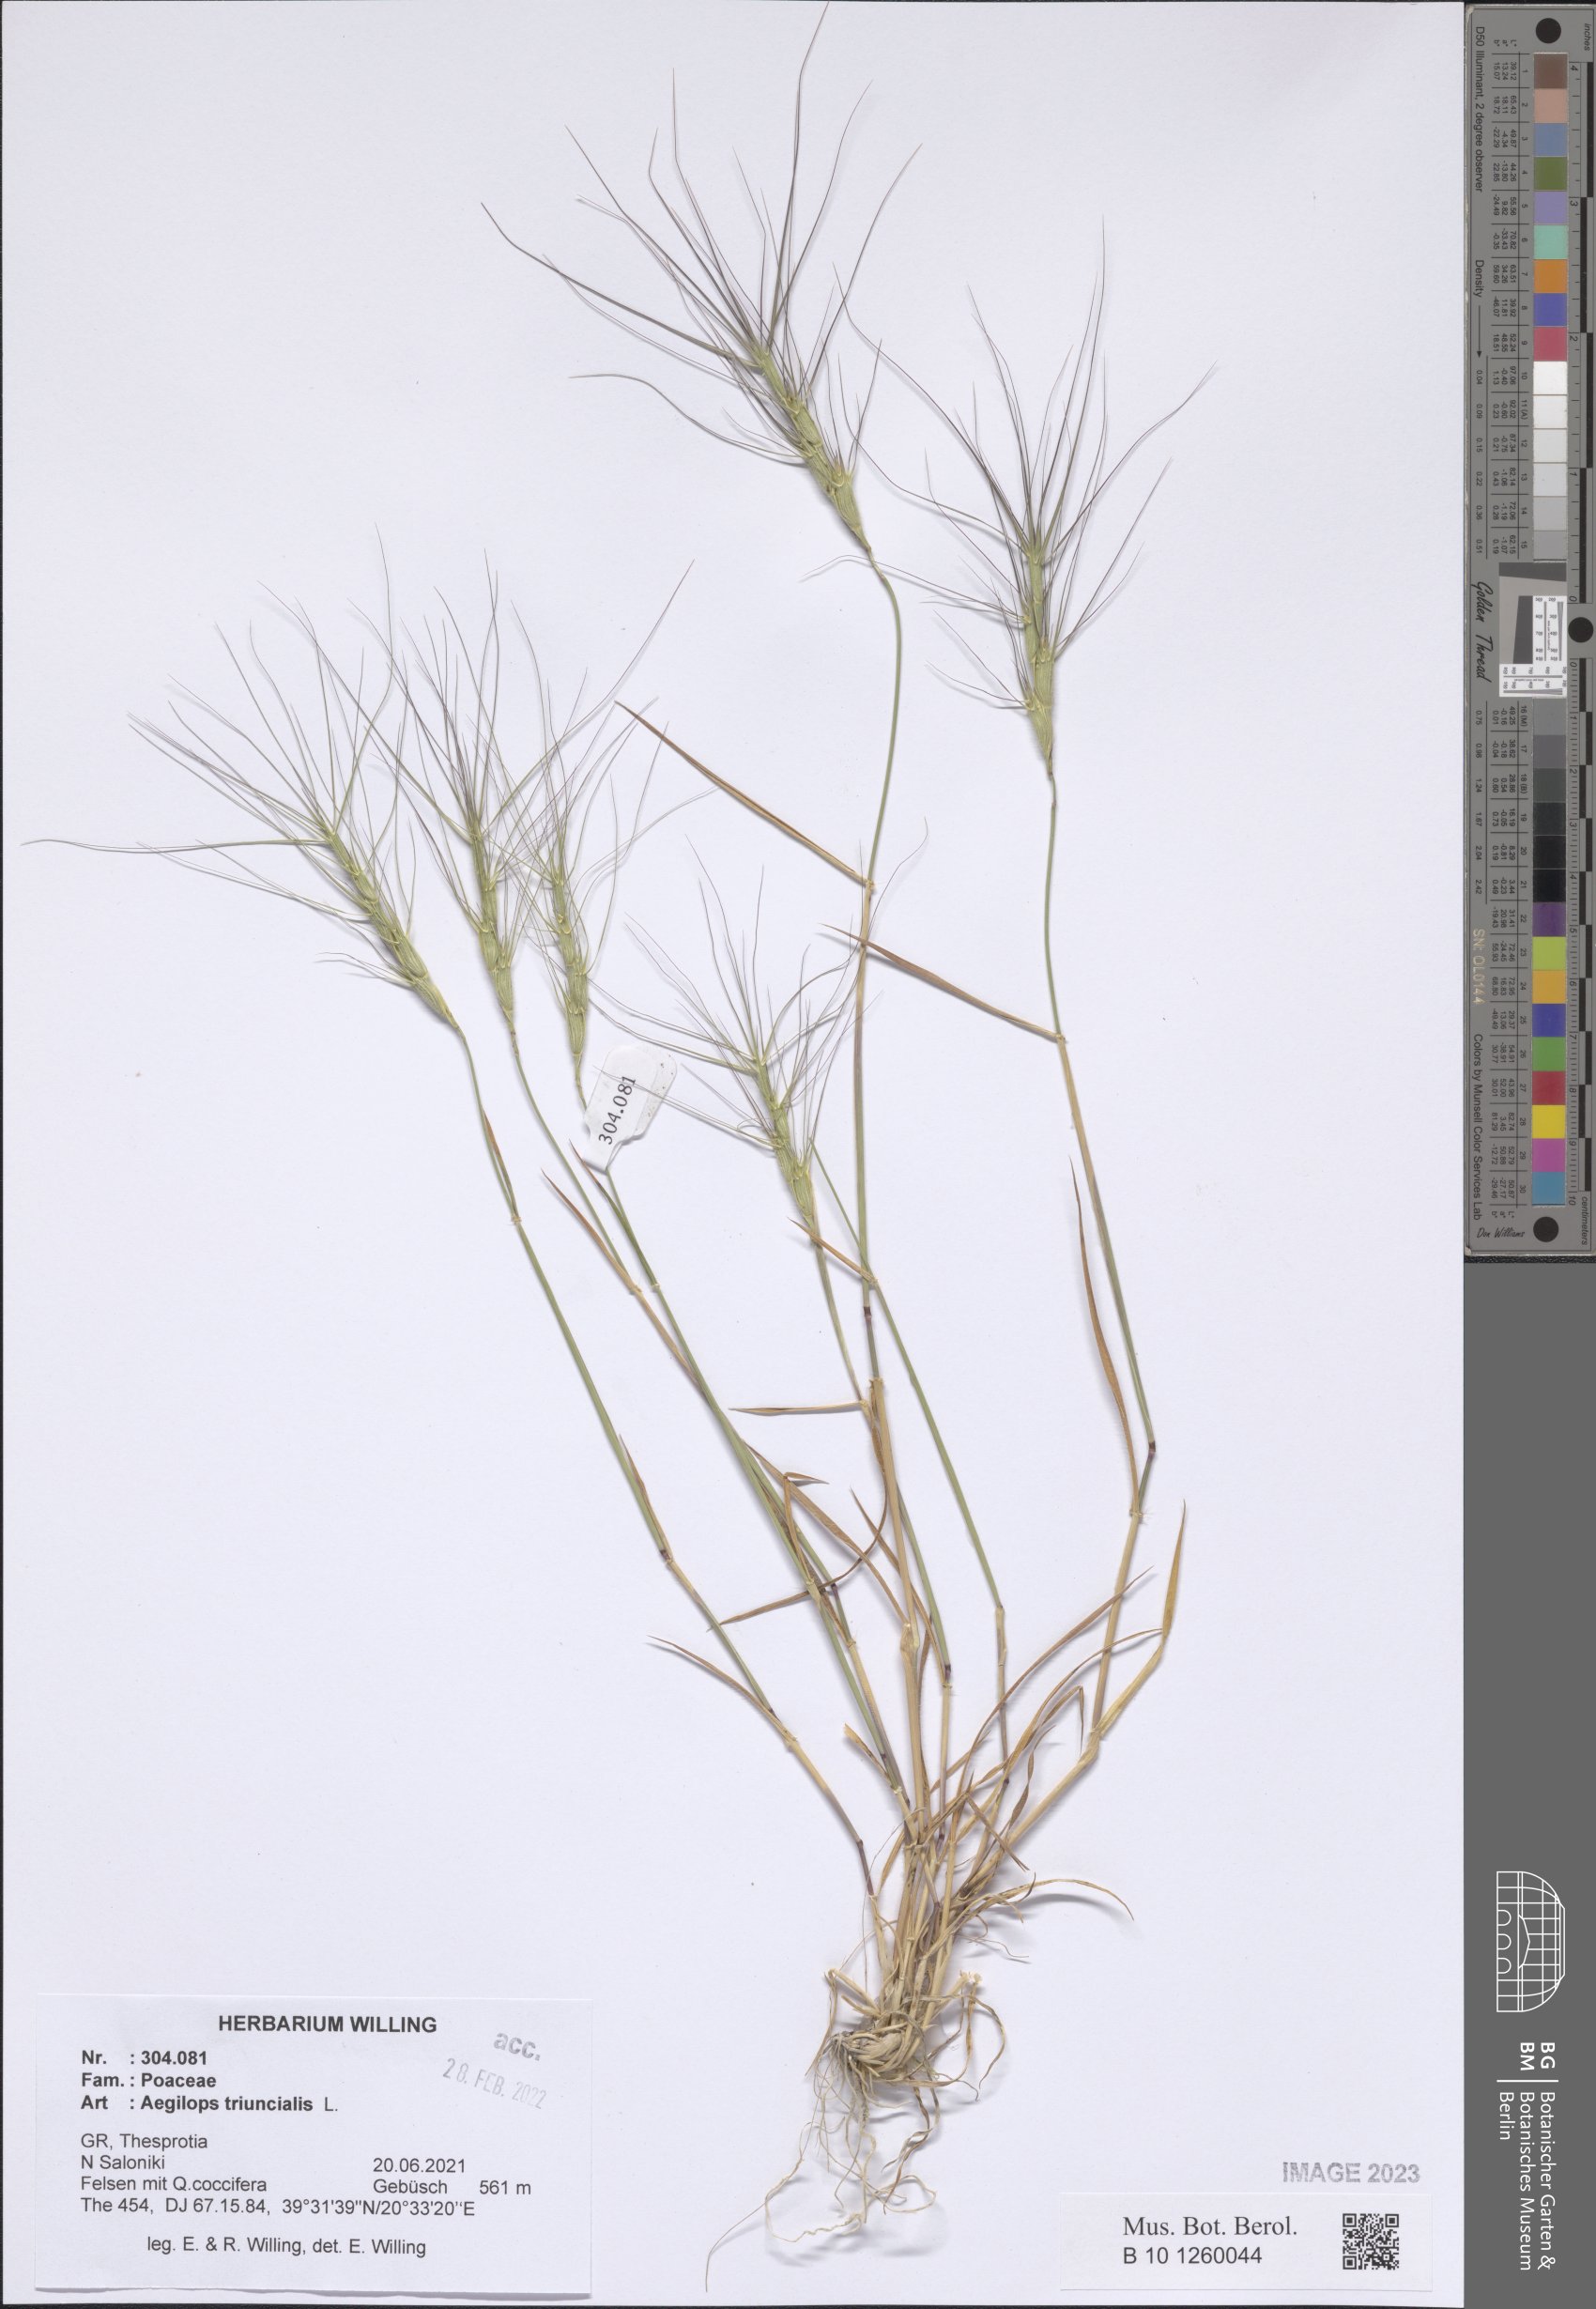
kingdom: Plantae
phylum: Tracheophyta
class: Liliopsida
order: Poales
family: Poaceae
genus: Aegilops
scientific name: Aegilops triuncialis
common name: Barb goat grass
